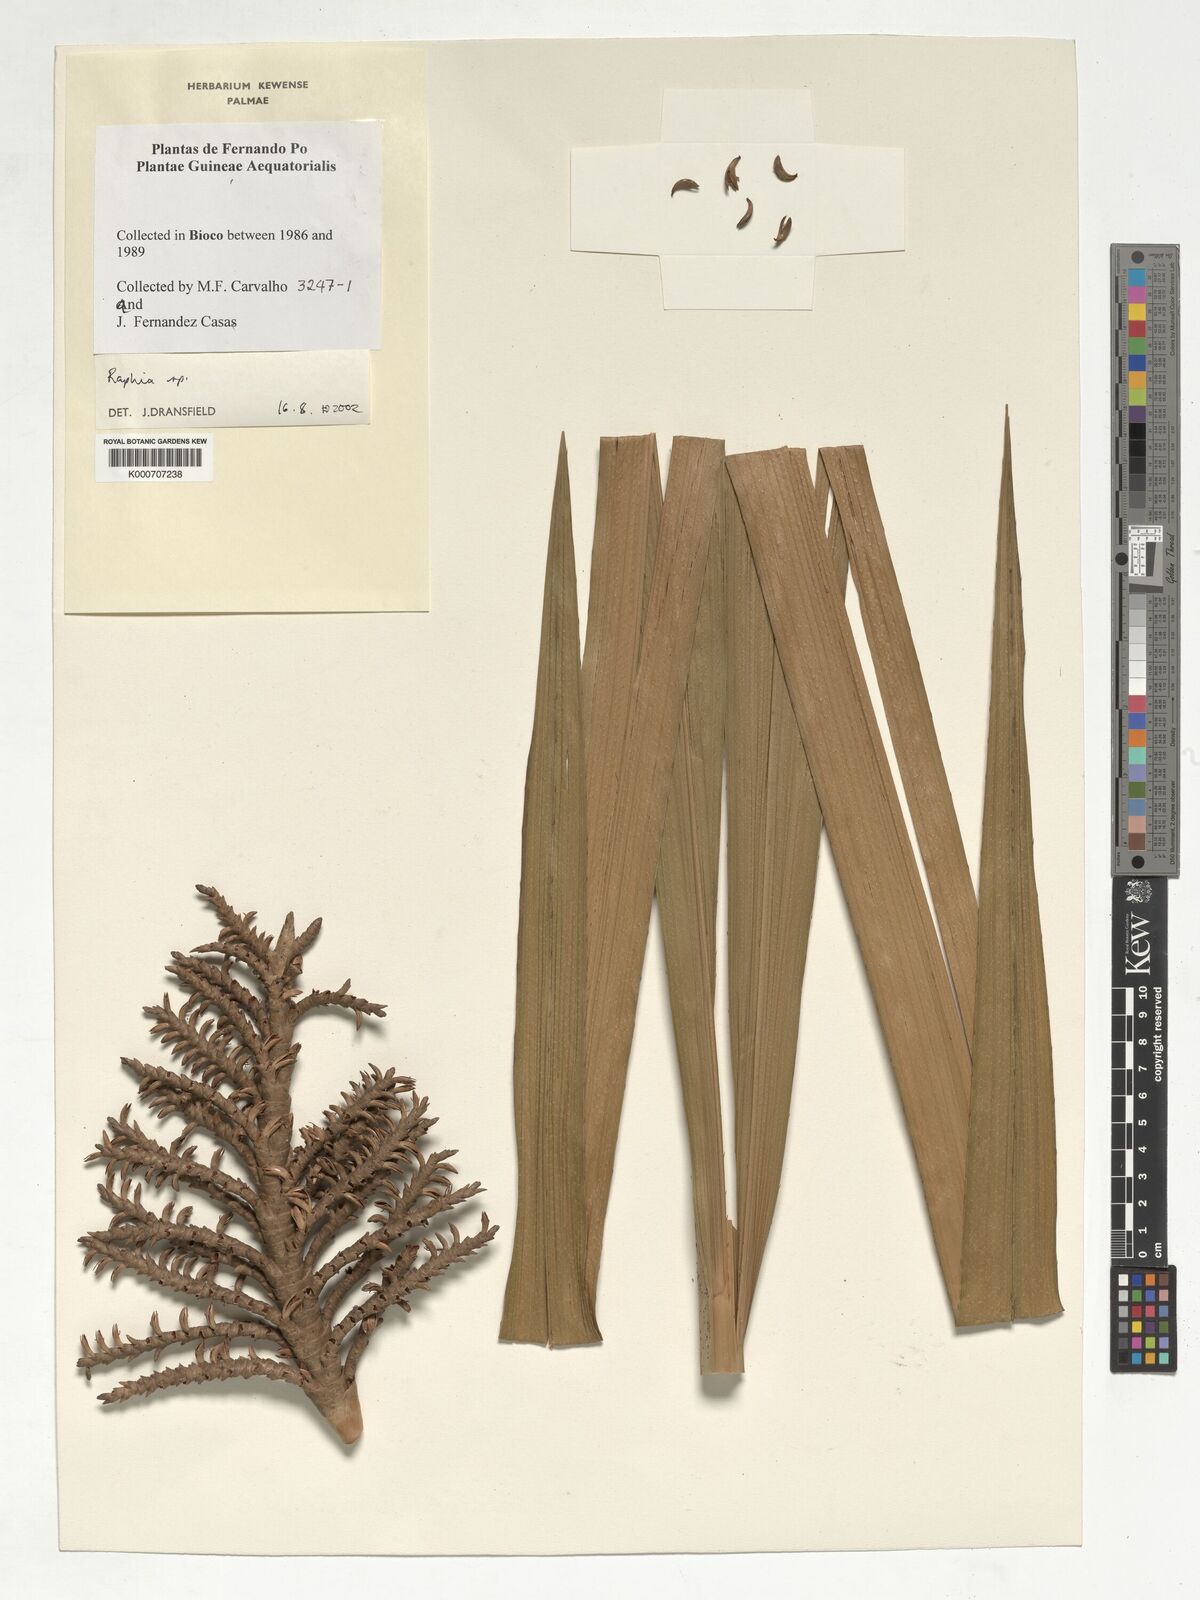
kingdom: Plantae
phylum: Tracheophyta
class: Liliopsida
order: Arecales
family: Arecaceae
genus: Raphia
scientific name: Raphia
